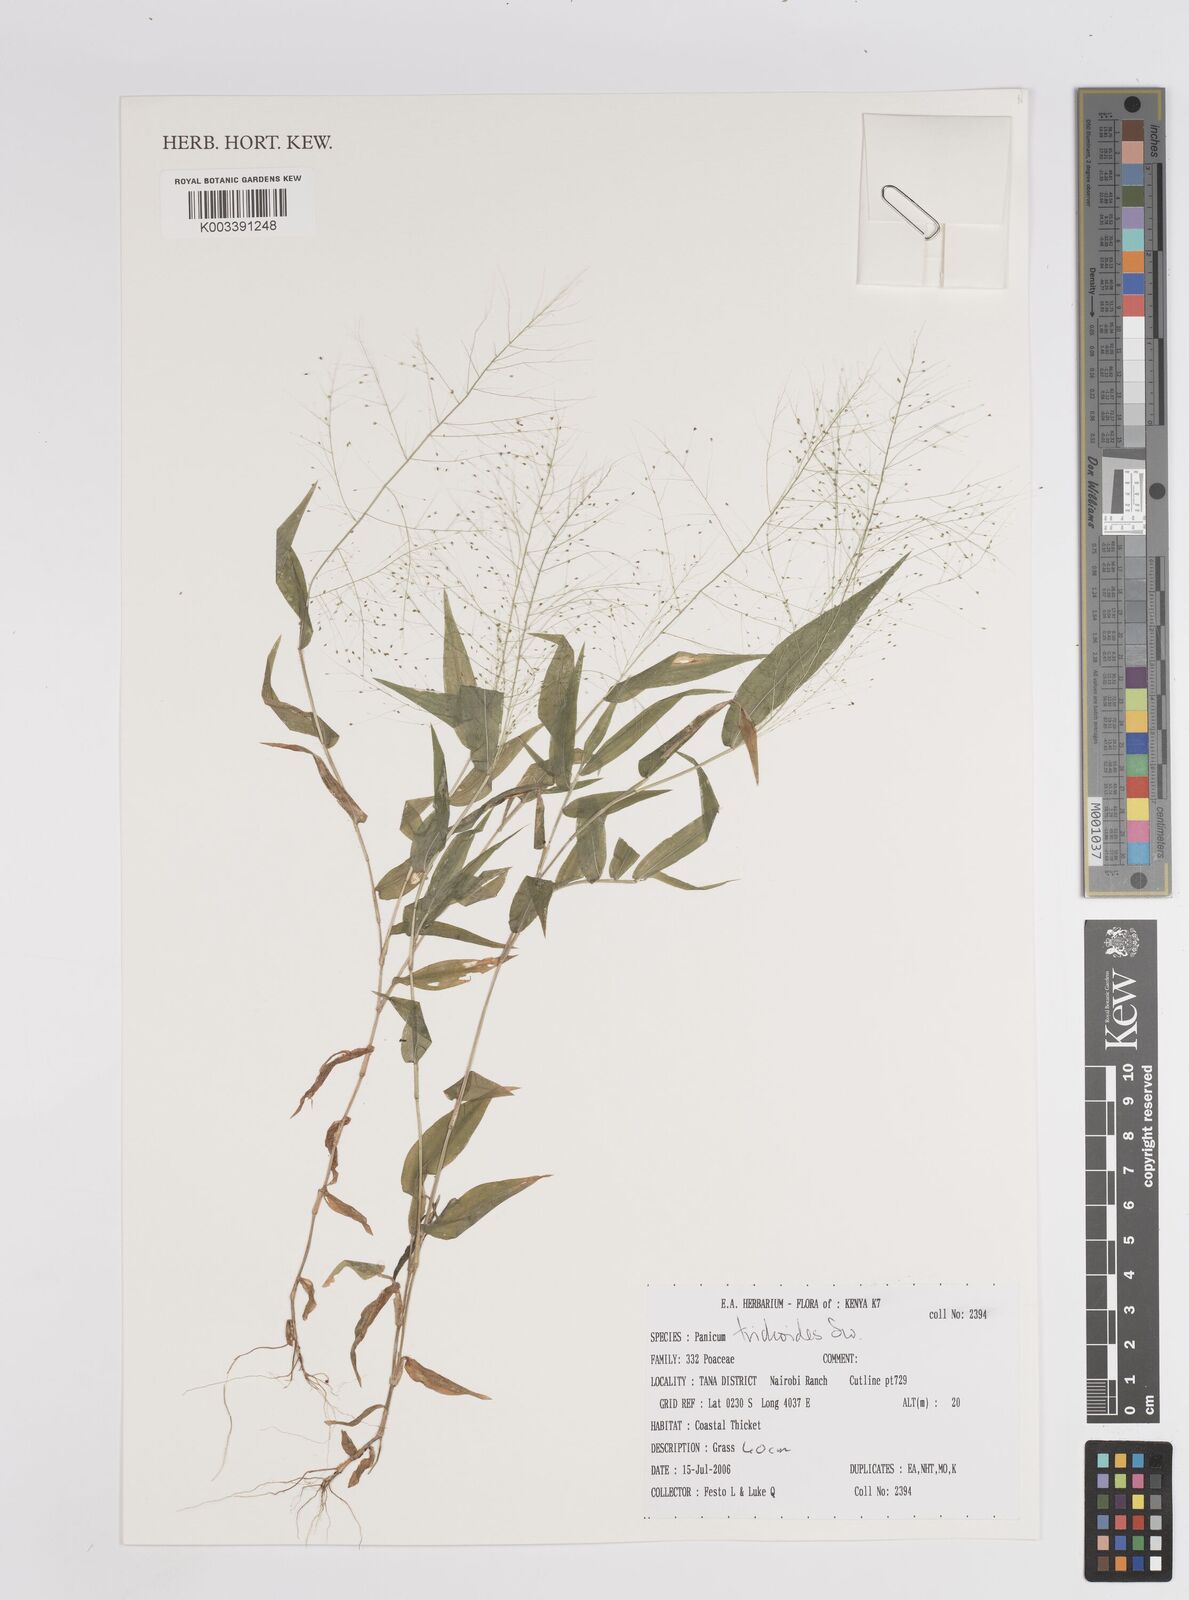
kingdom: Plantae
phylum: Tracheophyta
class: Liliopsida
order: Poales
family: Poaceae
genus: Panicum
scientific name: Panicum trichoides
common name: Tickle grass
